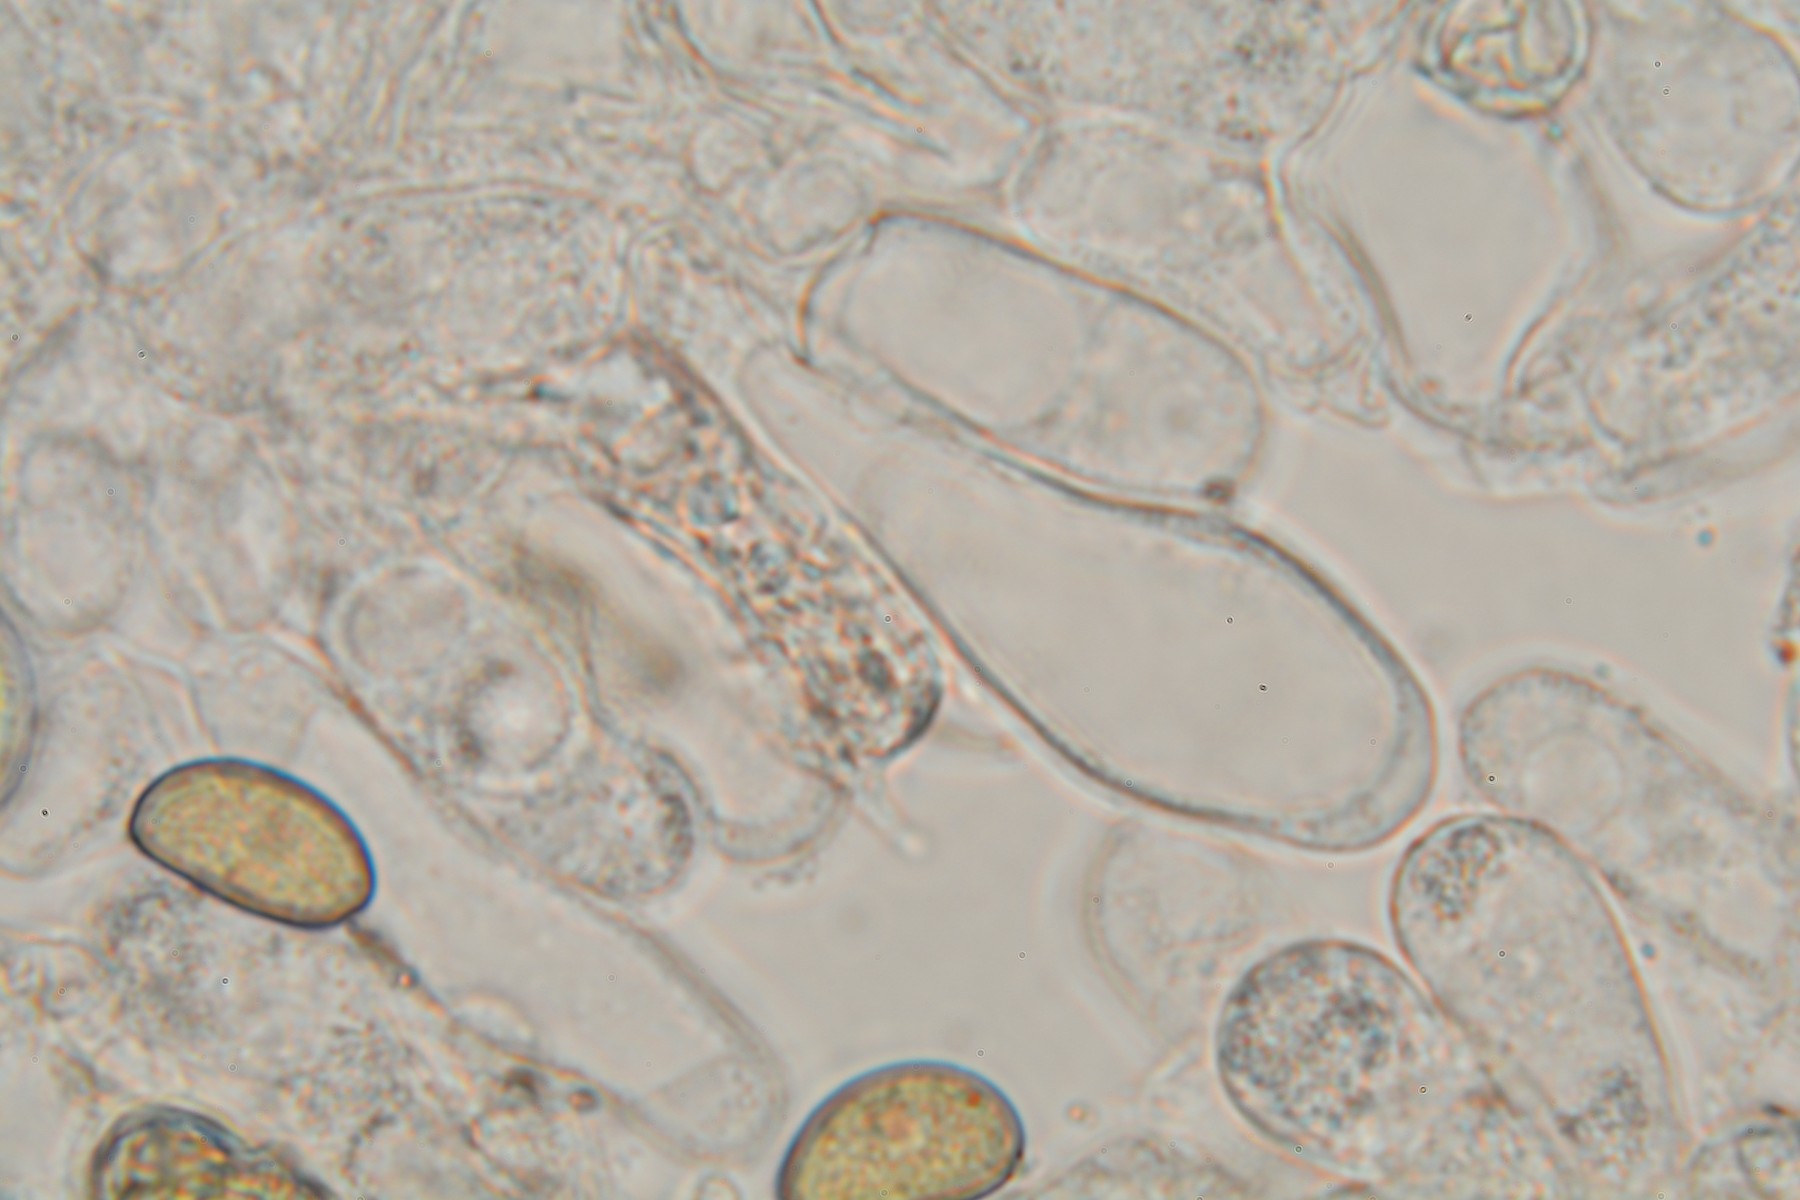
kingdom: Fungi
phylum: Basidiomycota
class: Agaricomycetes
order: Agaricales
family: Inocybaceae
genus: Inosperma
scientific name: Inosperma adaequatum
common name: vinrød trævlhat
